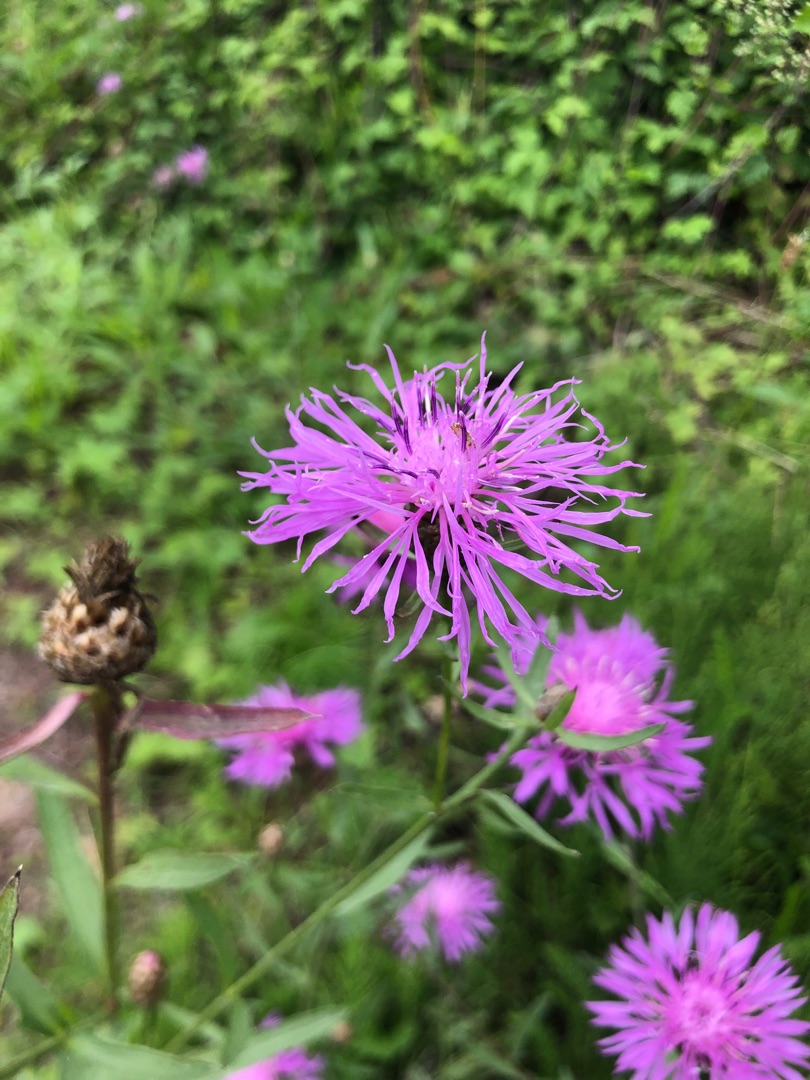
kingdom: Plantae
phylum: Tracheophyta
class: Magnoliopsida
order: Asterales
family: Asteraceae
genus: Centaurea
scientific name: Centaurea jacea
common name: Almindelig knopurt
